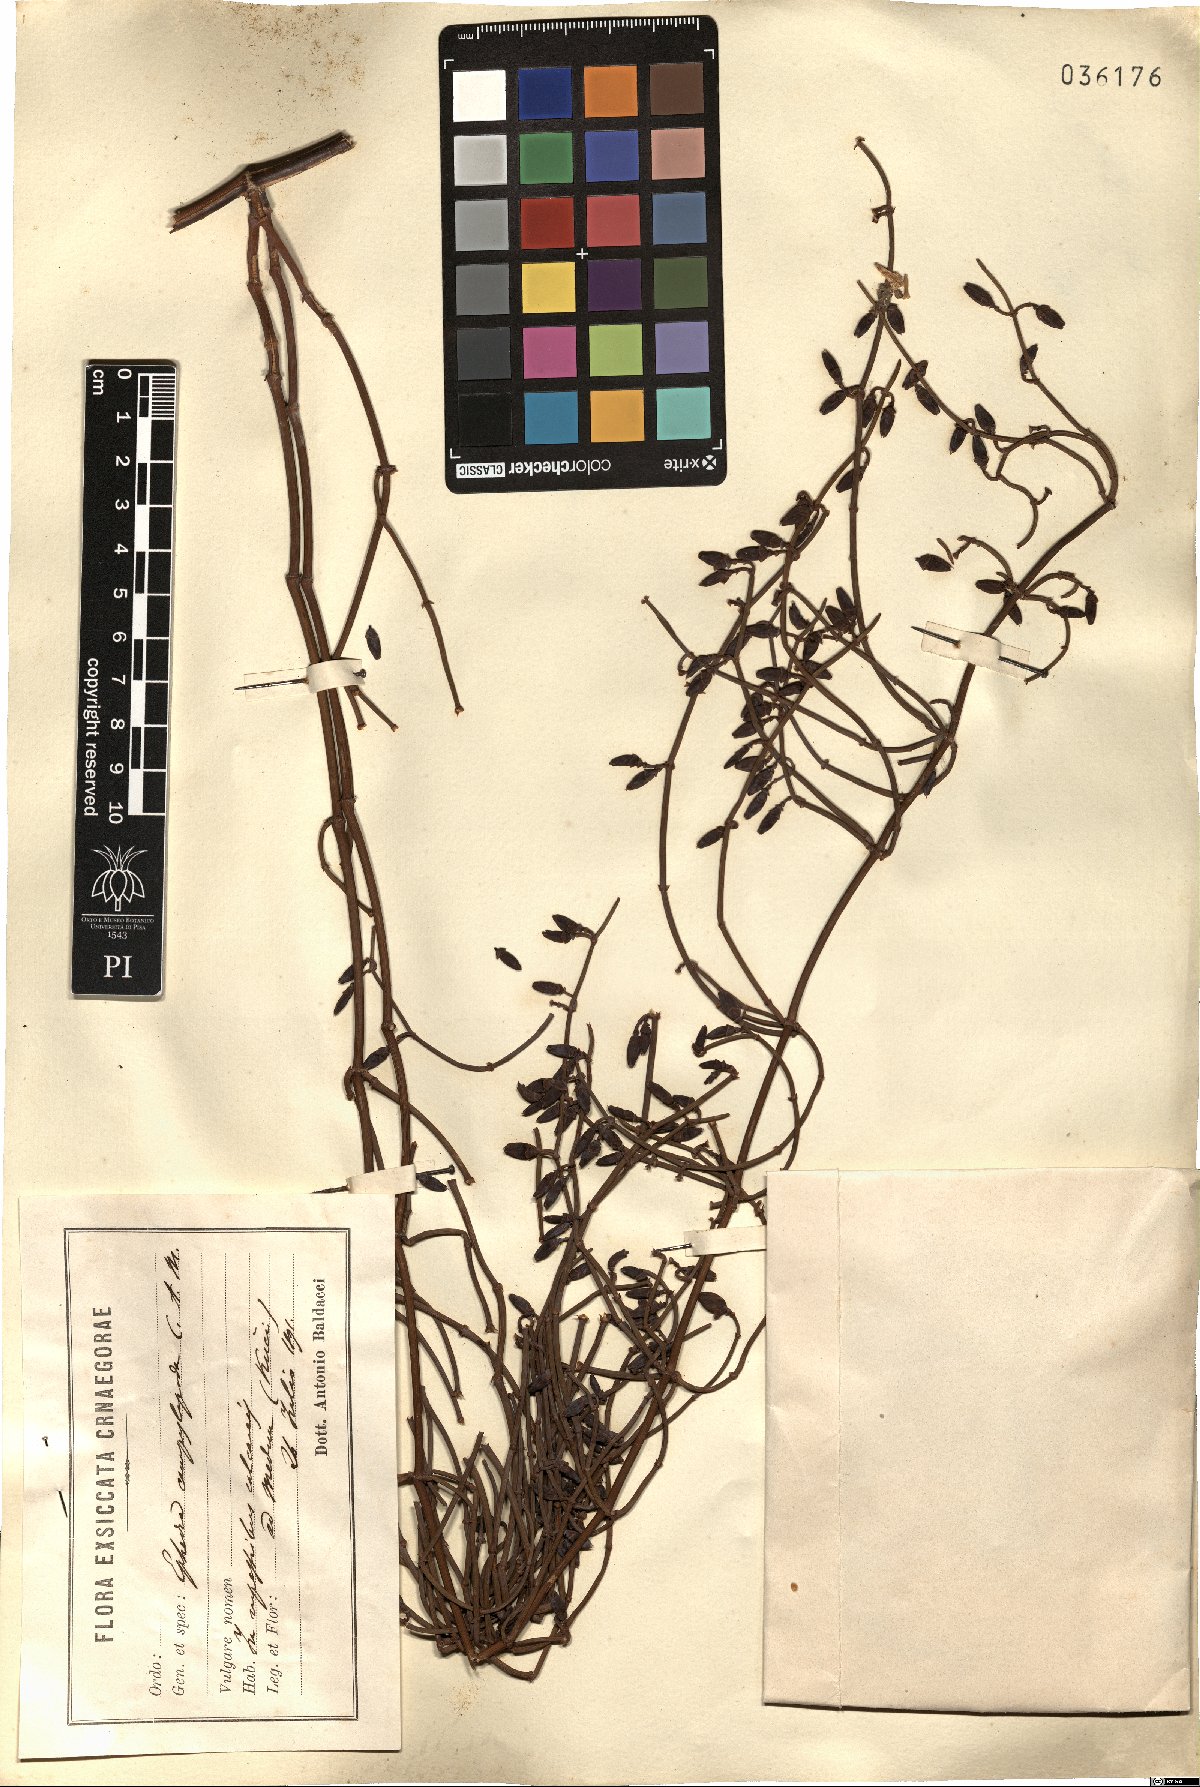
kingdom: Plantae
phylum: Tracheophyta
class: Gnetopsida
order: Ephedrales
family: Ephedraceae
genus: Ephedra
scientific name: Ephedra foeminea
